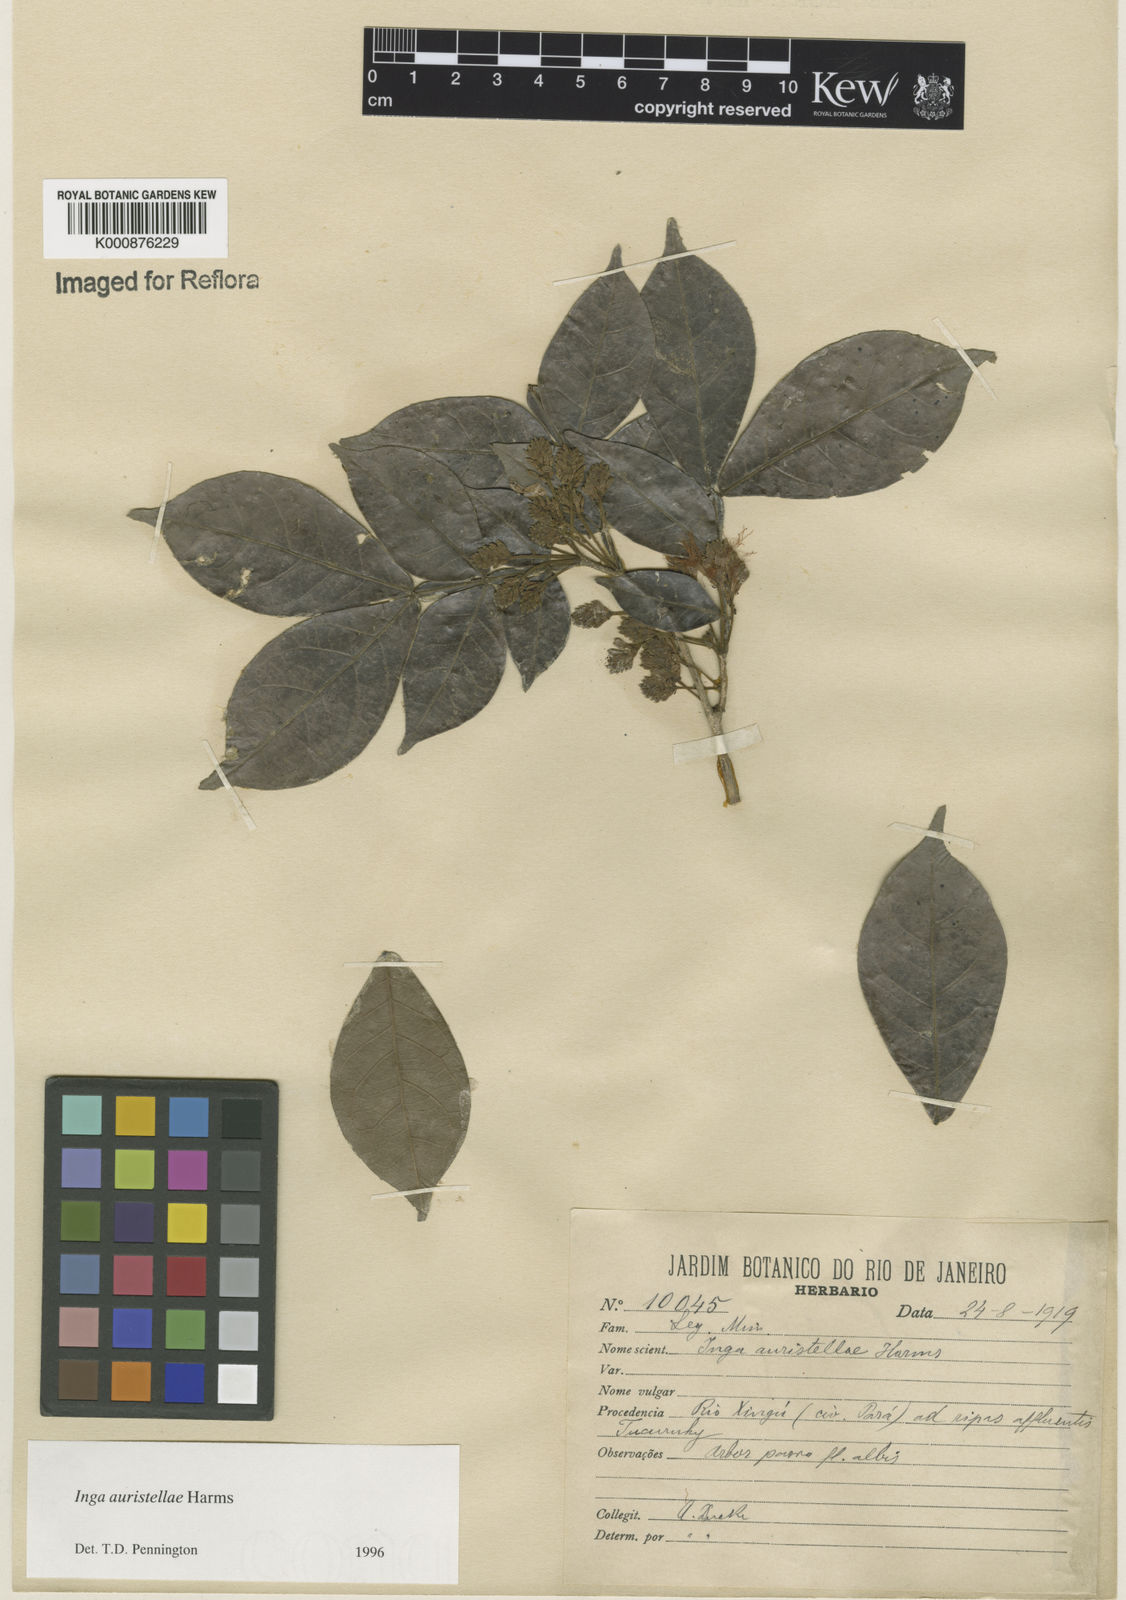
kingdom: Plantae
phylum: Tracheophyta
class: Magnoliopsida
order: Fabales
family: Fabaceae
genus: Inga
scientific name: Inga auristellae
